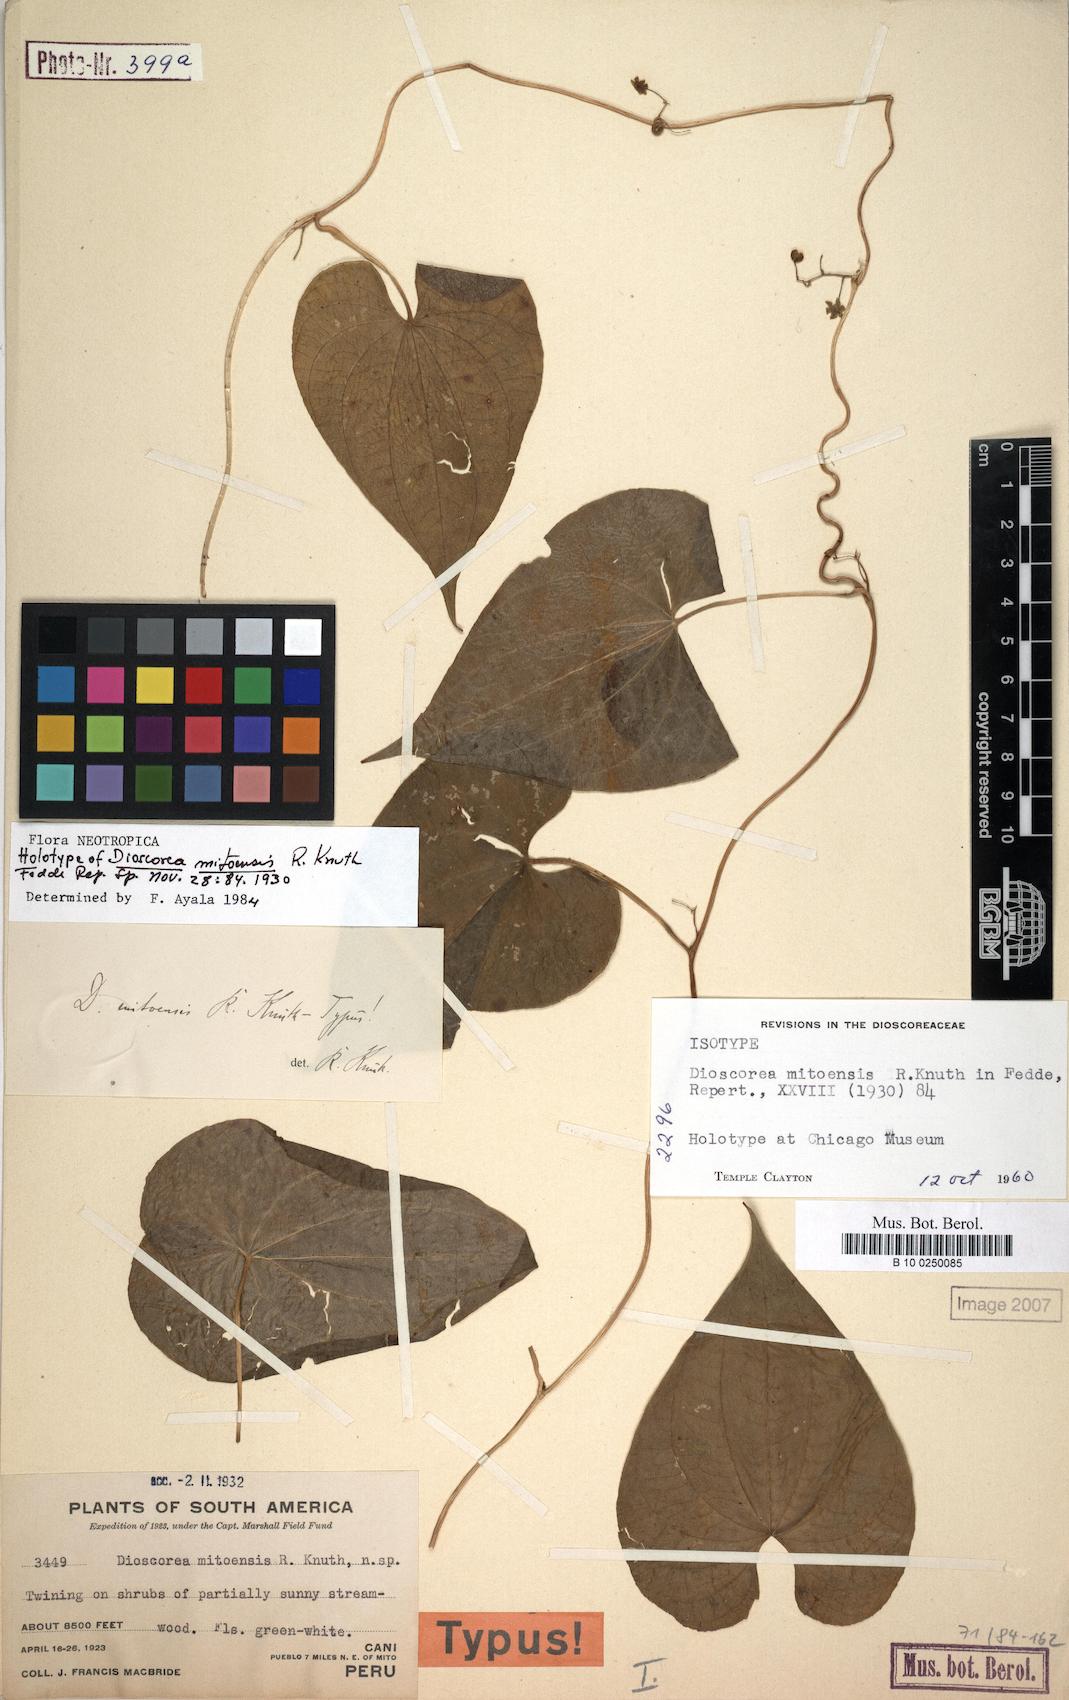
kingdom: Plantae
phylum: Tracheophyta
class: Liliopsida
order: Dioscoreales
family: Dioscoreaceae
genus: Dioscorea
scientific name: Dioscorea mitoensis
